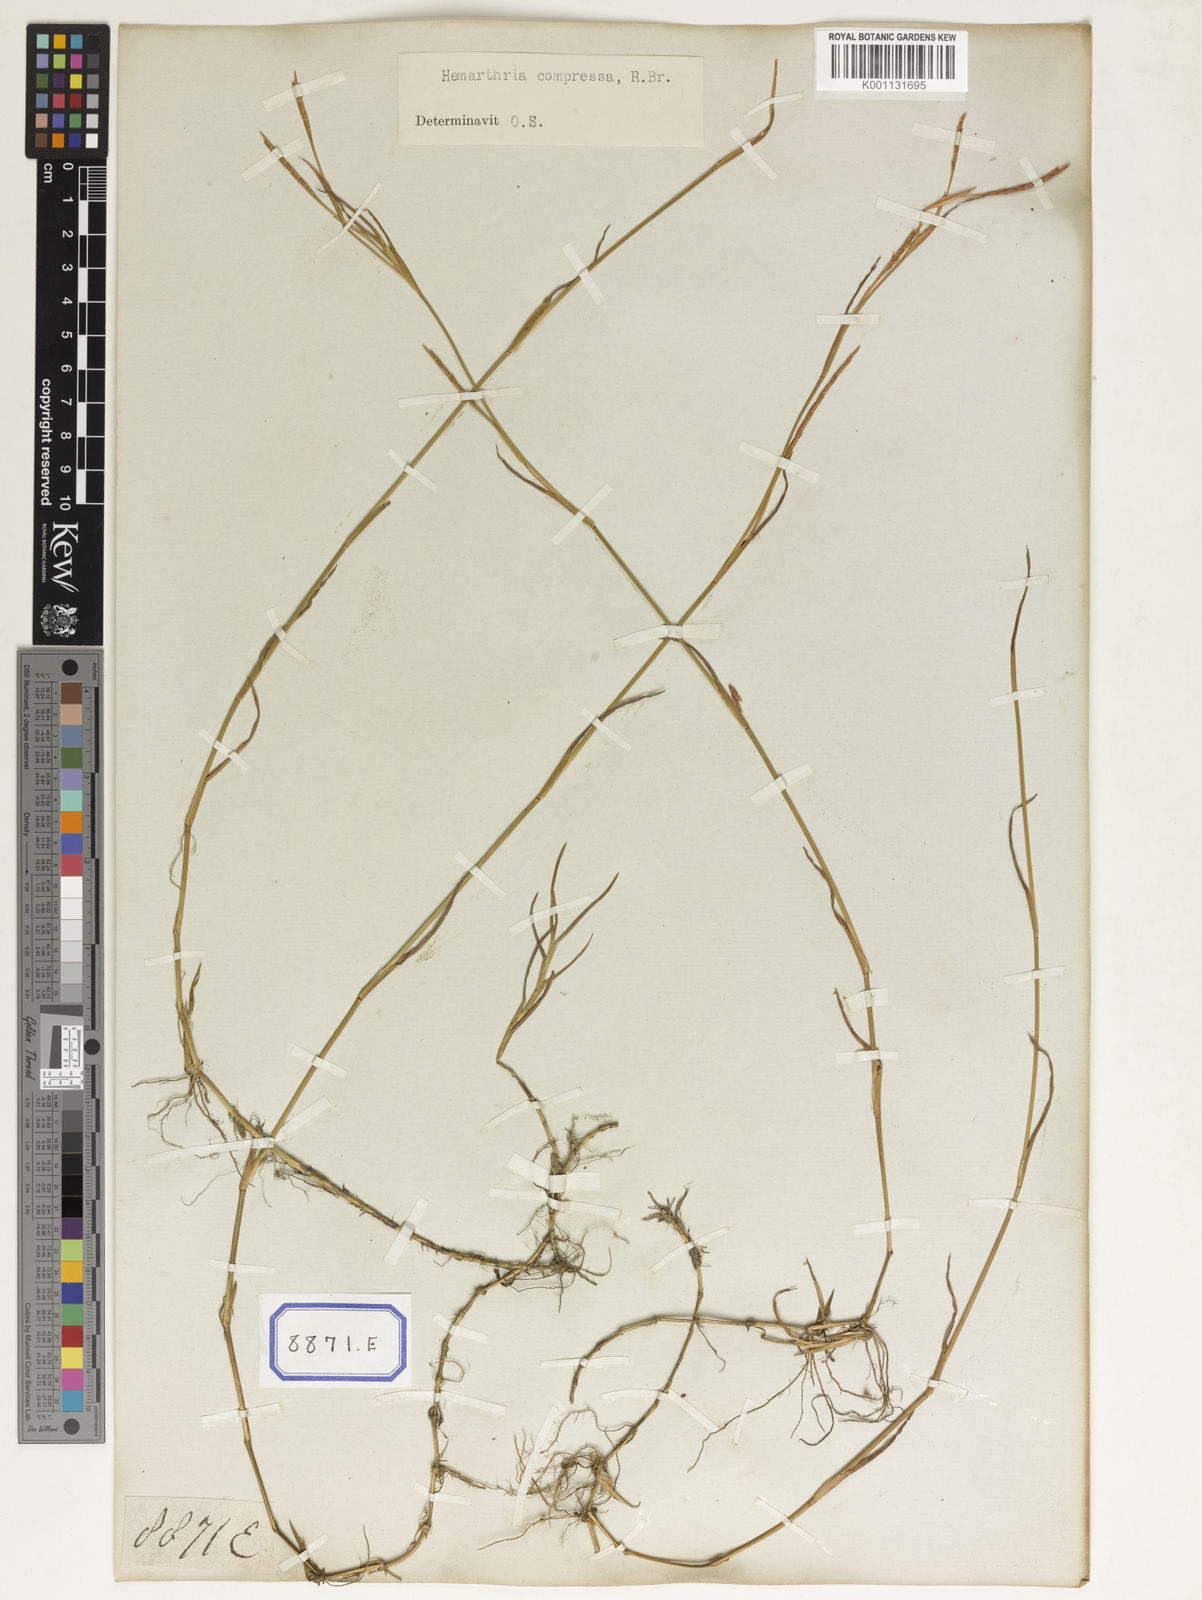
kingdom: Plantae
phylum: Tracheophyta
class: Liliopsida
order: Poales
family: Poaceae
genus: Hemarthria
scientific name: Hemarthria
